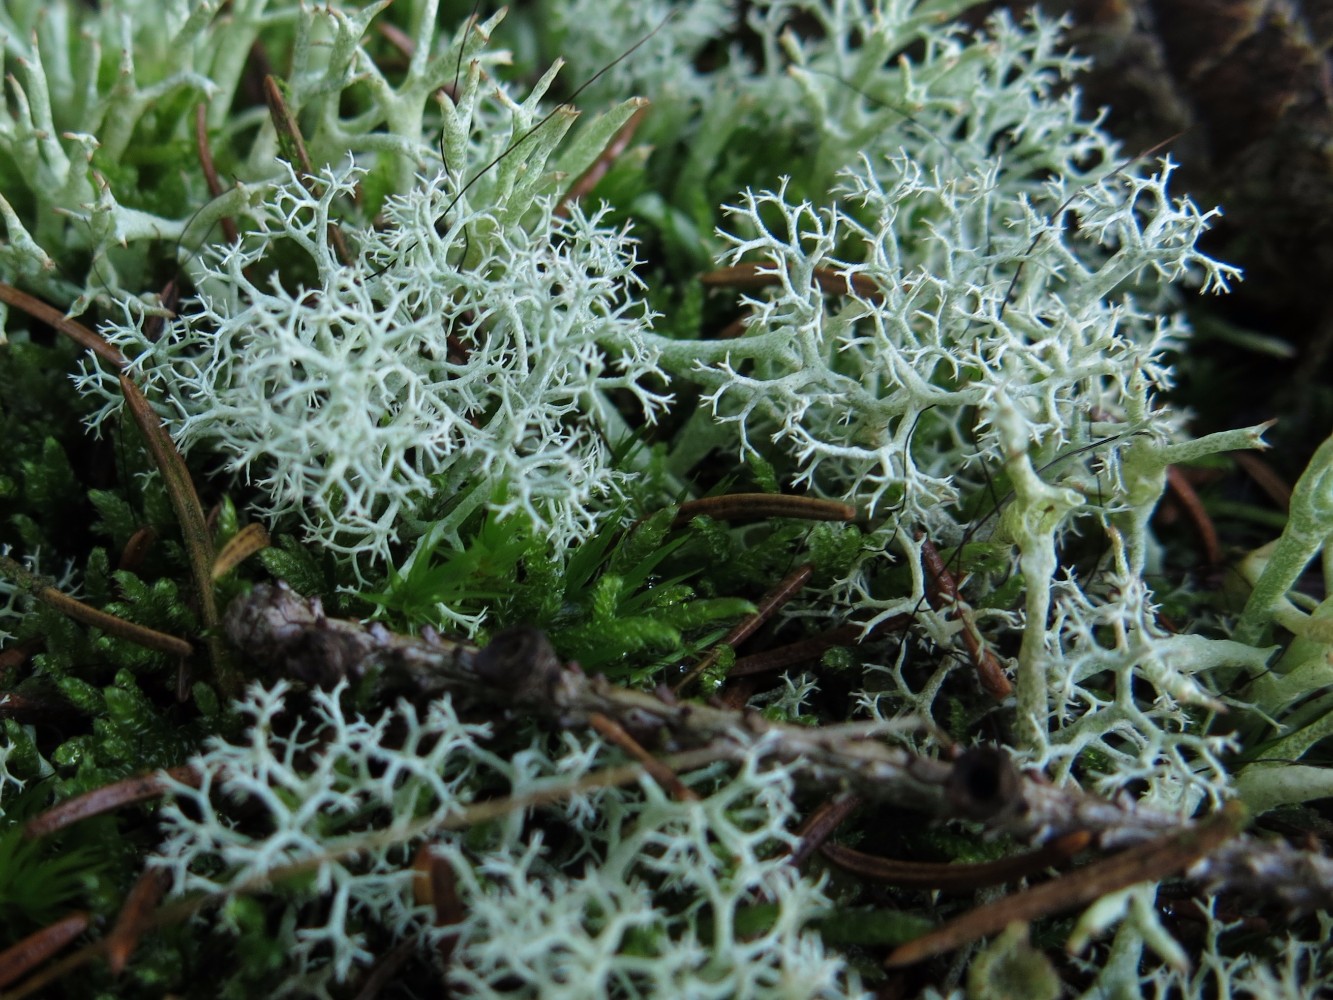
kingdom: Fungi
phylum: Ascomycota
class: Lecanoromycetes
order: Lecanorales
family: Cladoniaceae
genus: Cladonia
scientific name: Cladonia portentosa
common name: hede-rensdyrlav
